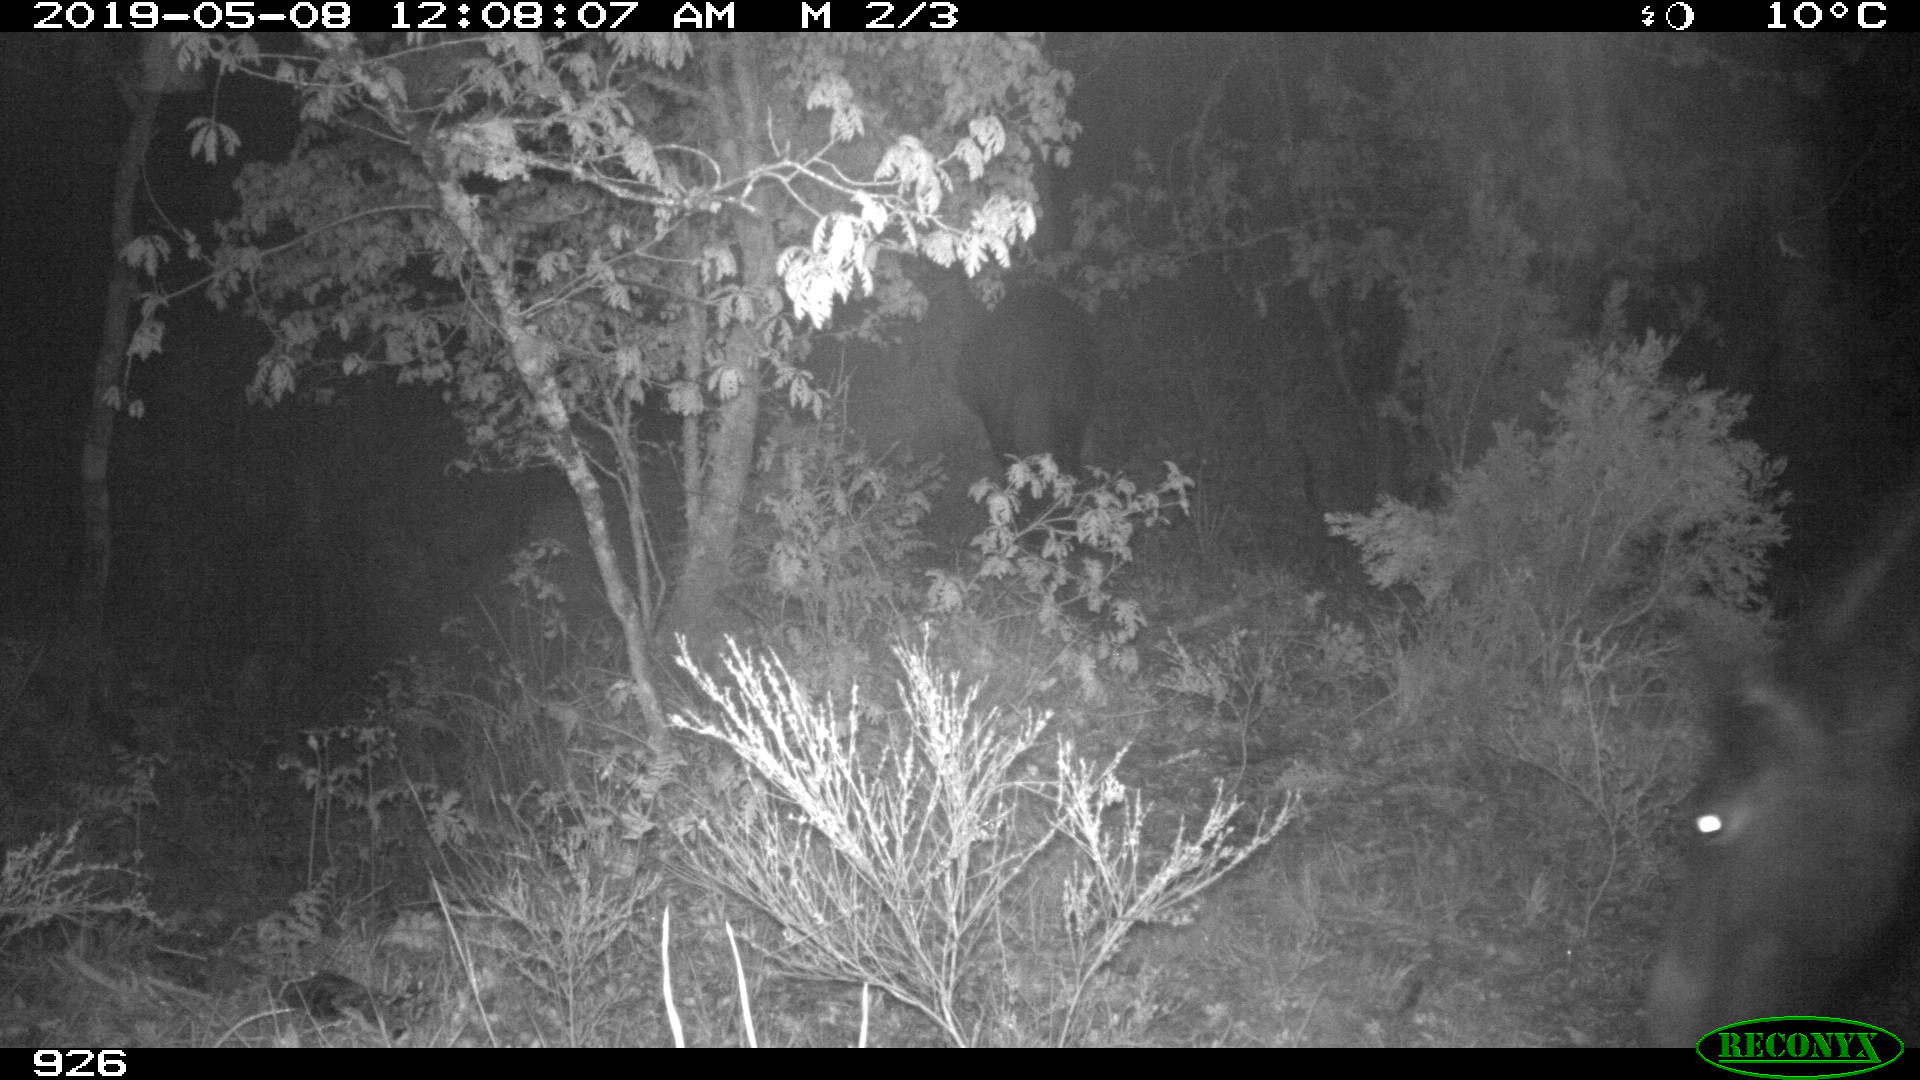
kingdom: Animalia
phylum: Chordata
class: Mammalia
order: Perissodactyla
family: Equidae
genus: Equus
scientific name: Equus caballus
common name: Horse
